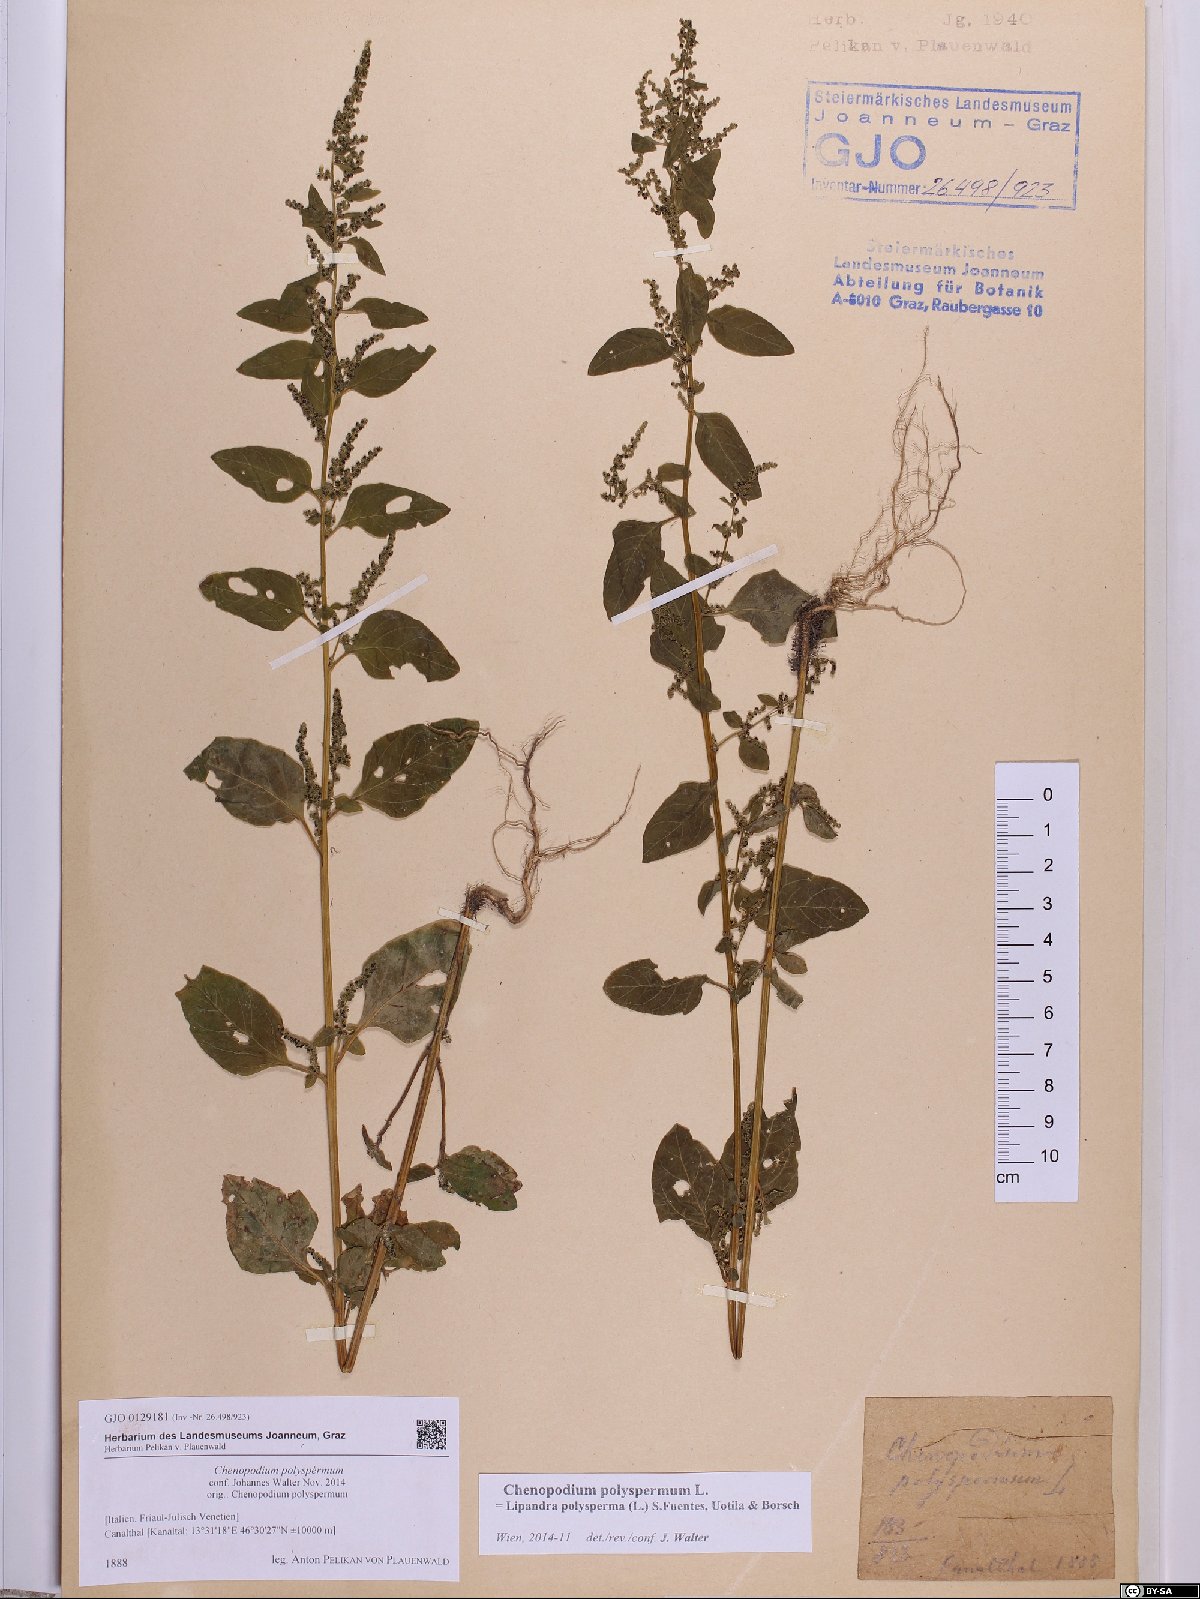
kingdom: Plantae
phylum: Tracheophyta
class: Magnoliopsida
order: Caryophyllales
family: Amaranthaceae
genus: Lipandra
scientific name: Lipandra polysperma
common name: Many-seed goosefoot
